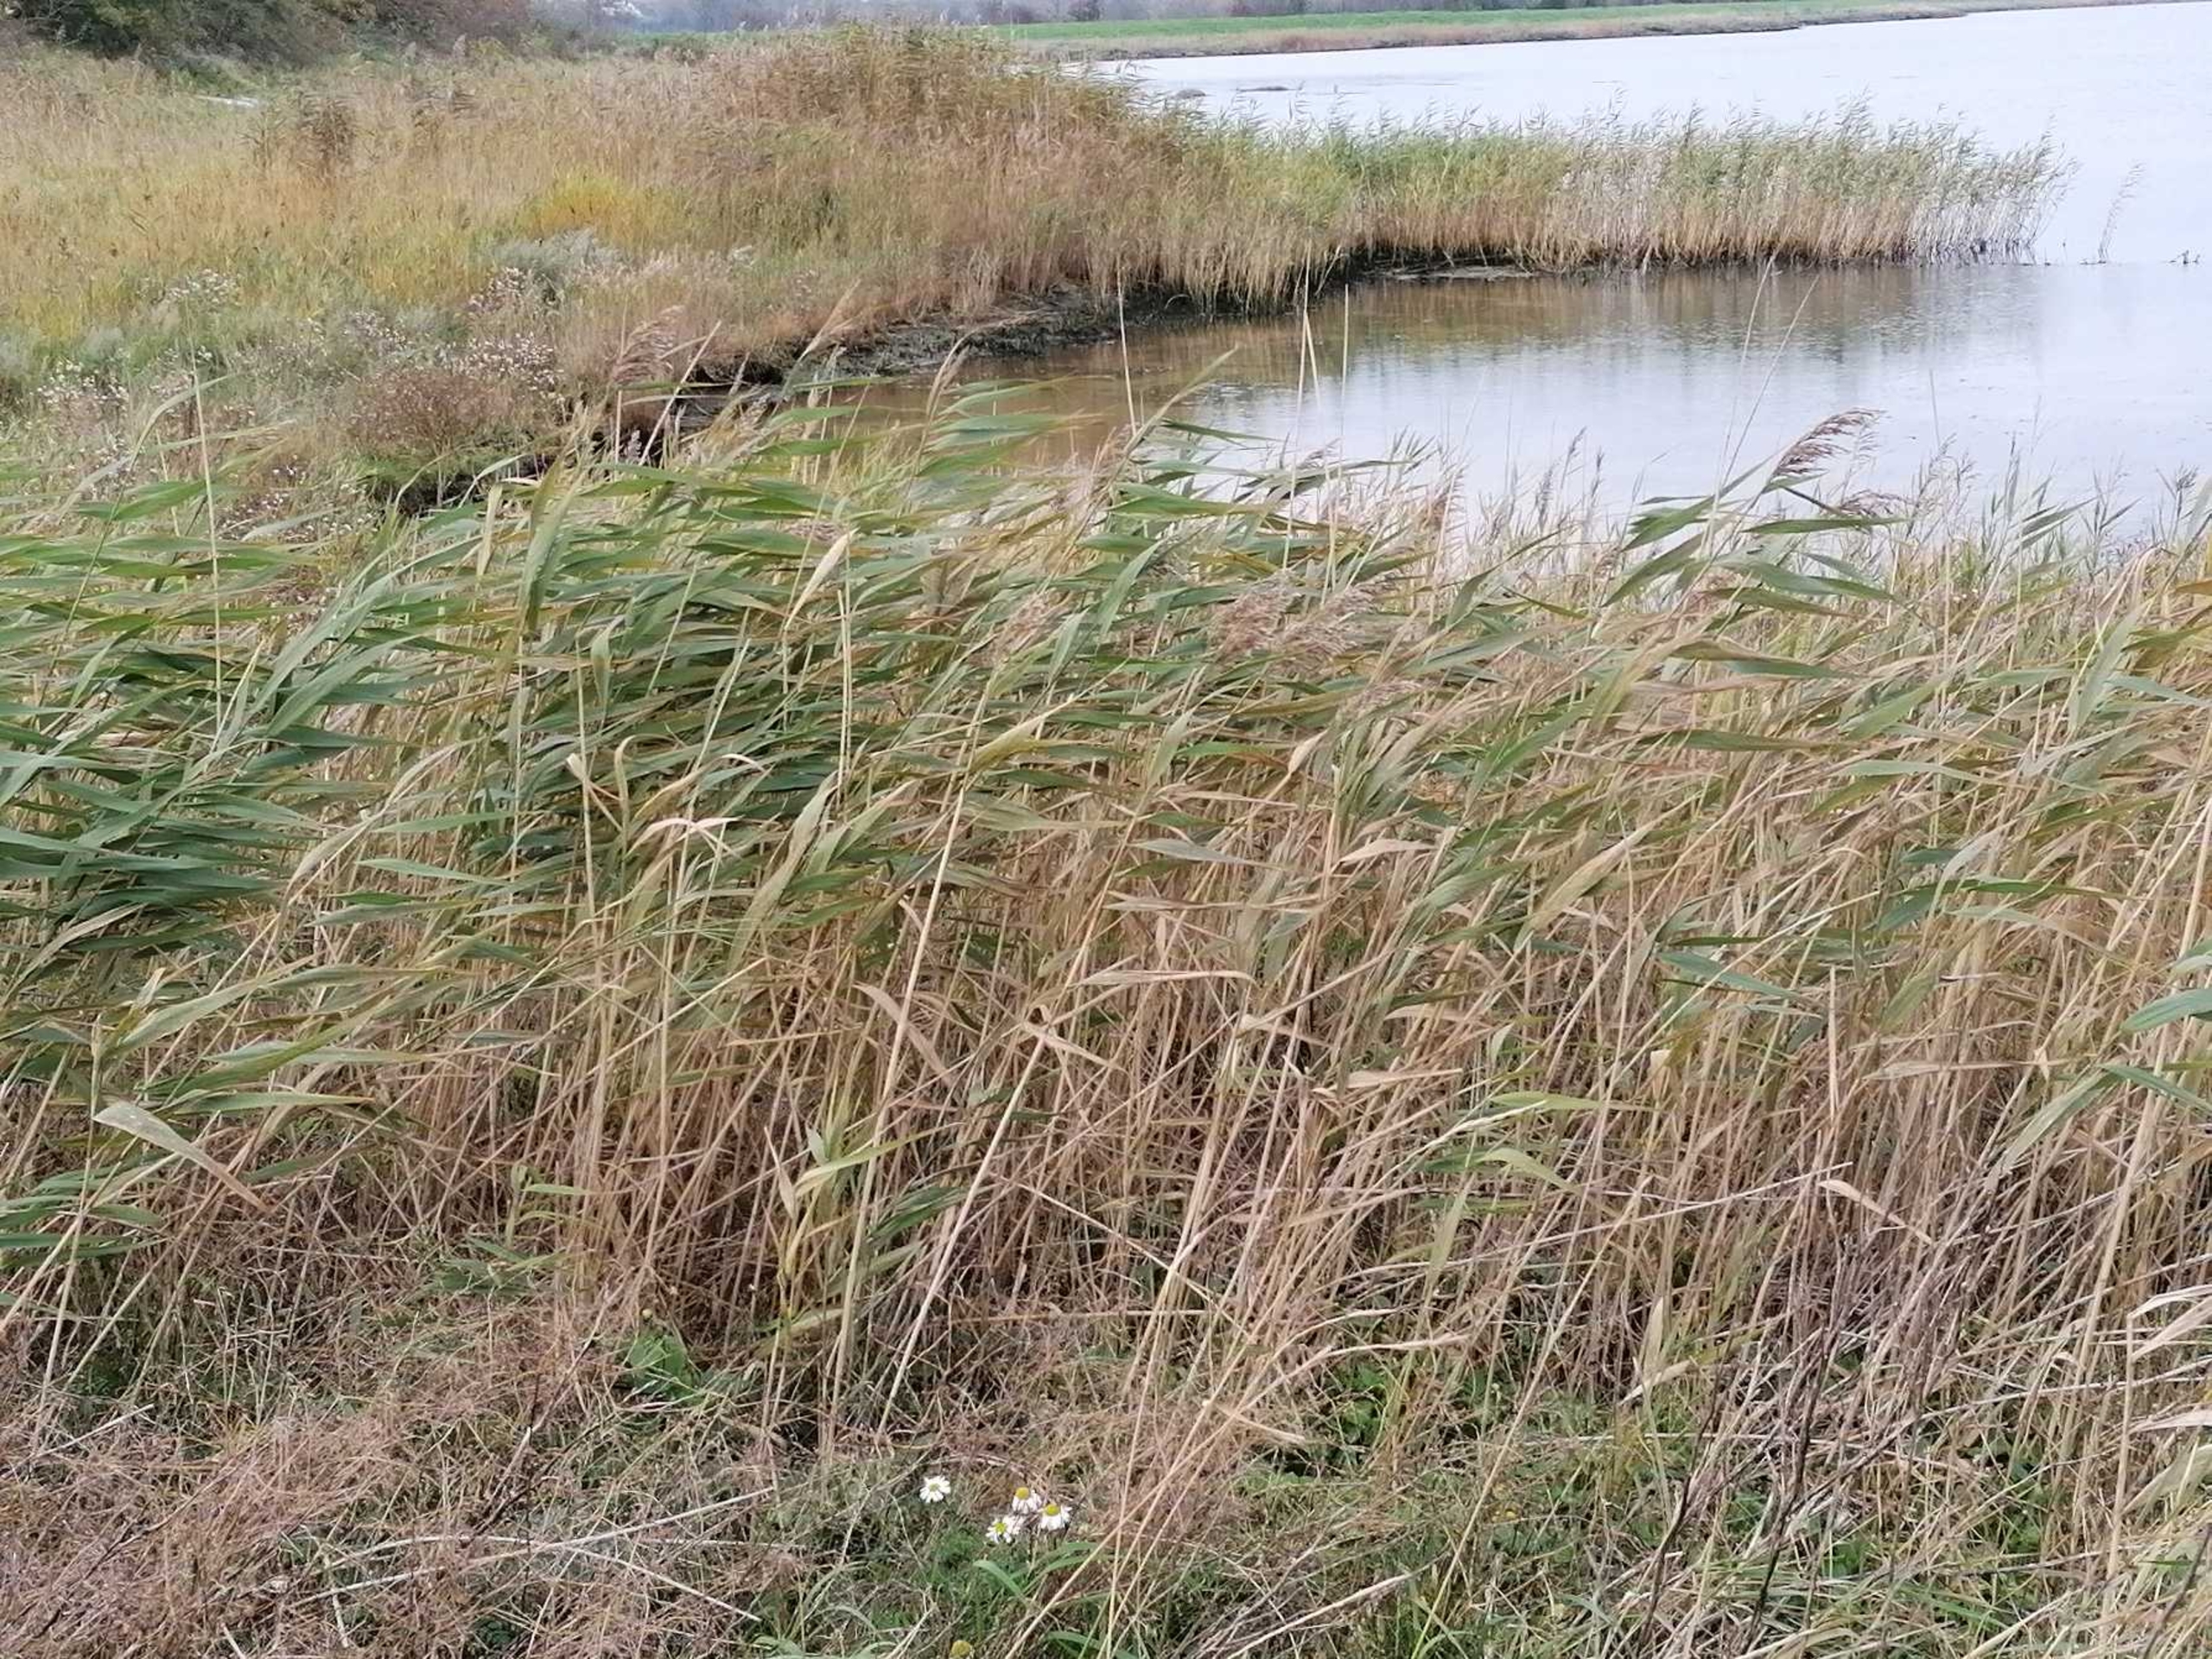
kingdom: Plantae
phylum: Tracheophyta
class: Liliopsida
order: Poales
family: Poaceae
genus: Phragmites
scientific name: Phragmites australis
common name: Tagrør
